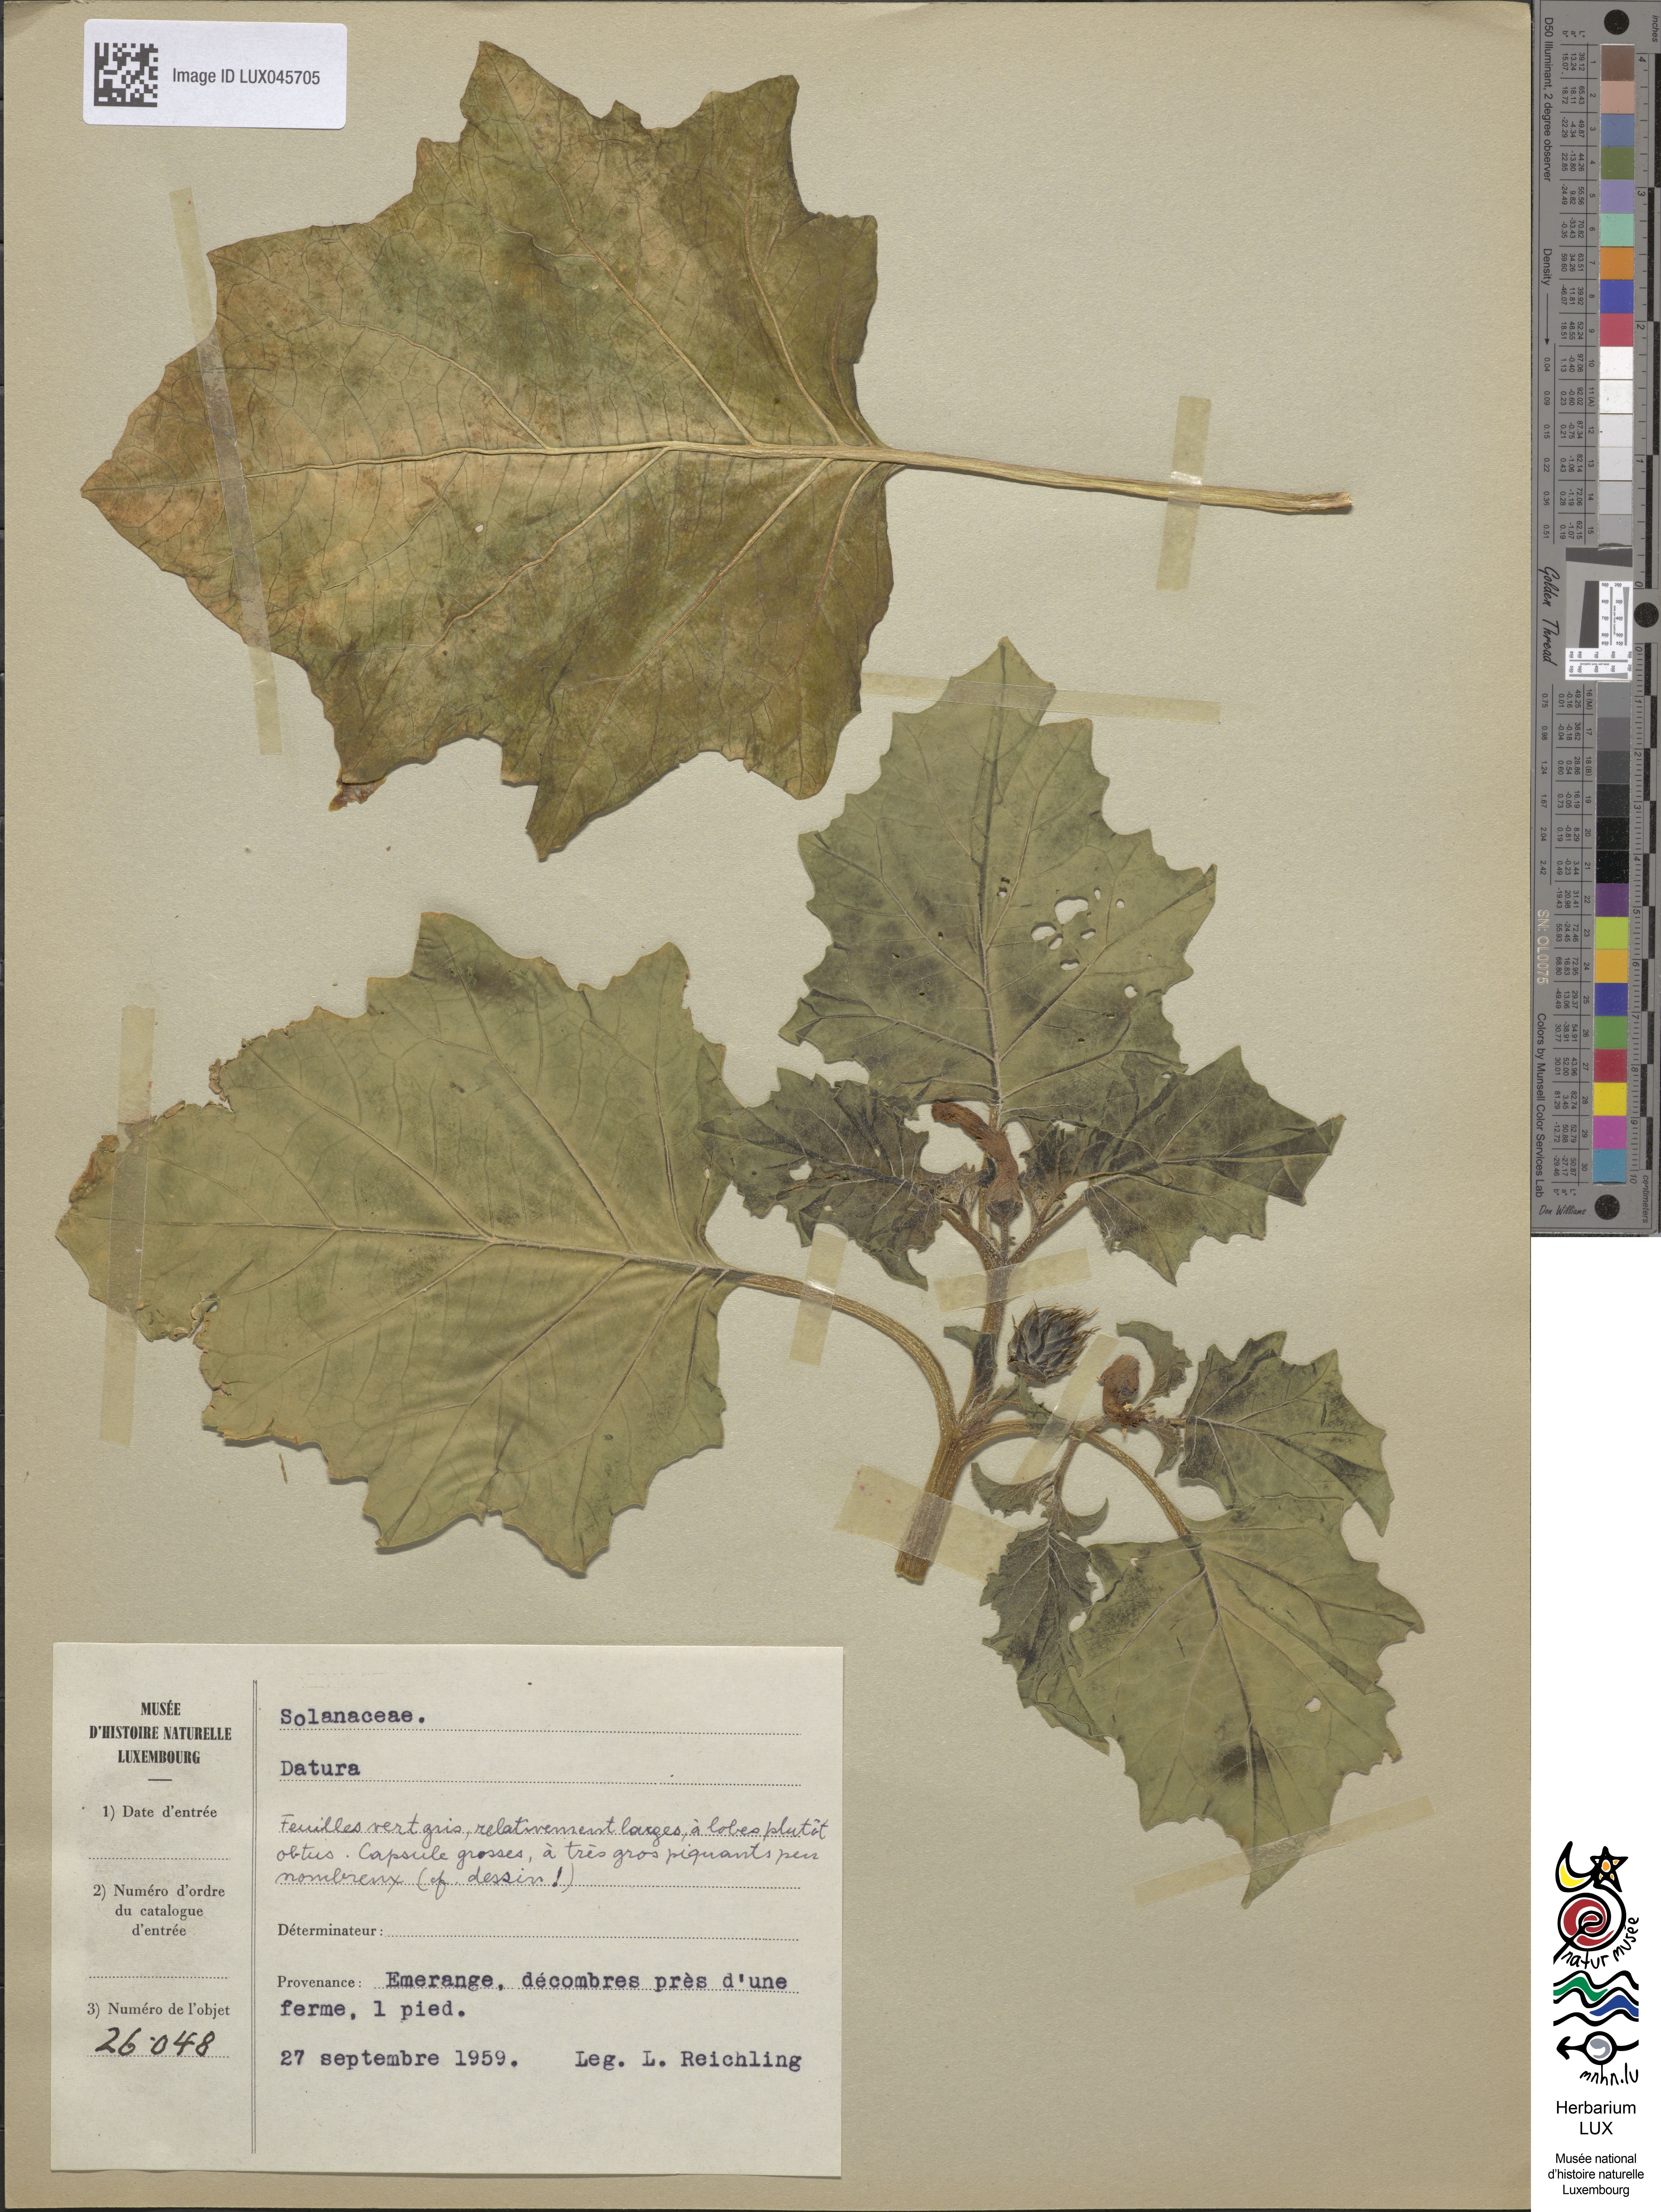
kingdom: Plantae
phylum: Tracheophyta
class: Magnoliopsida
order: Solanales
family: Solanaceae
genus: Datura
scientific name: Datura
